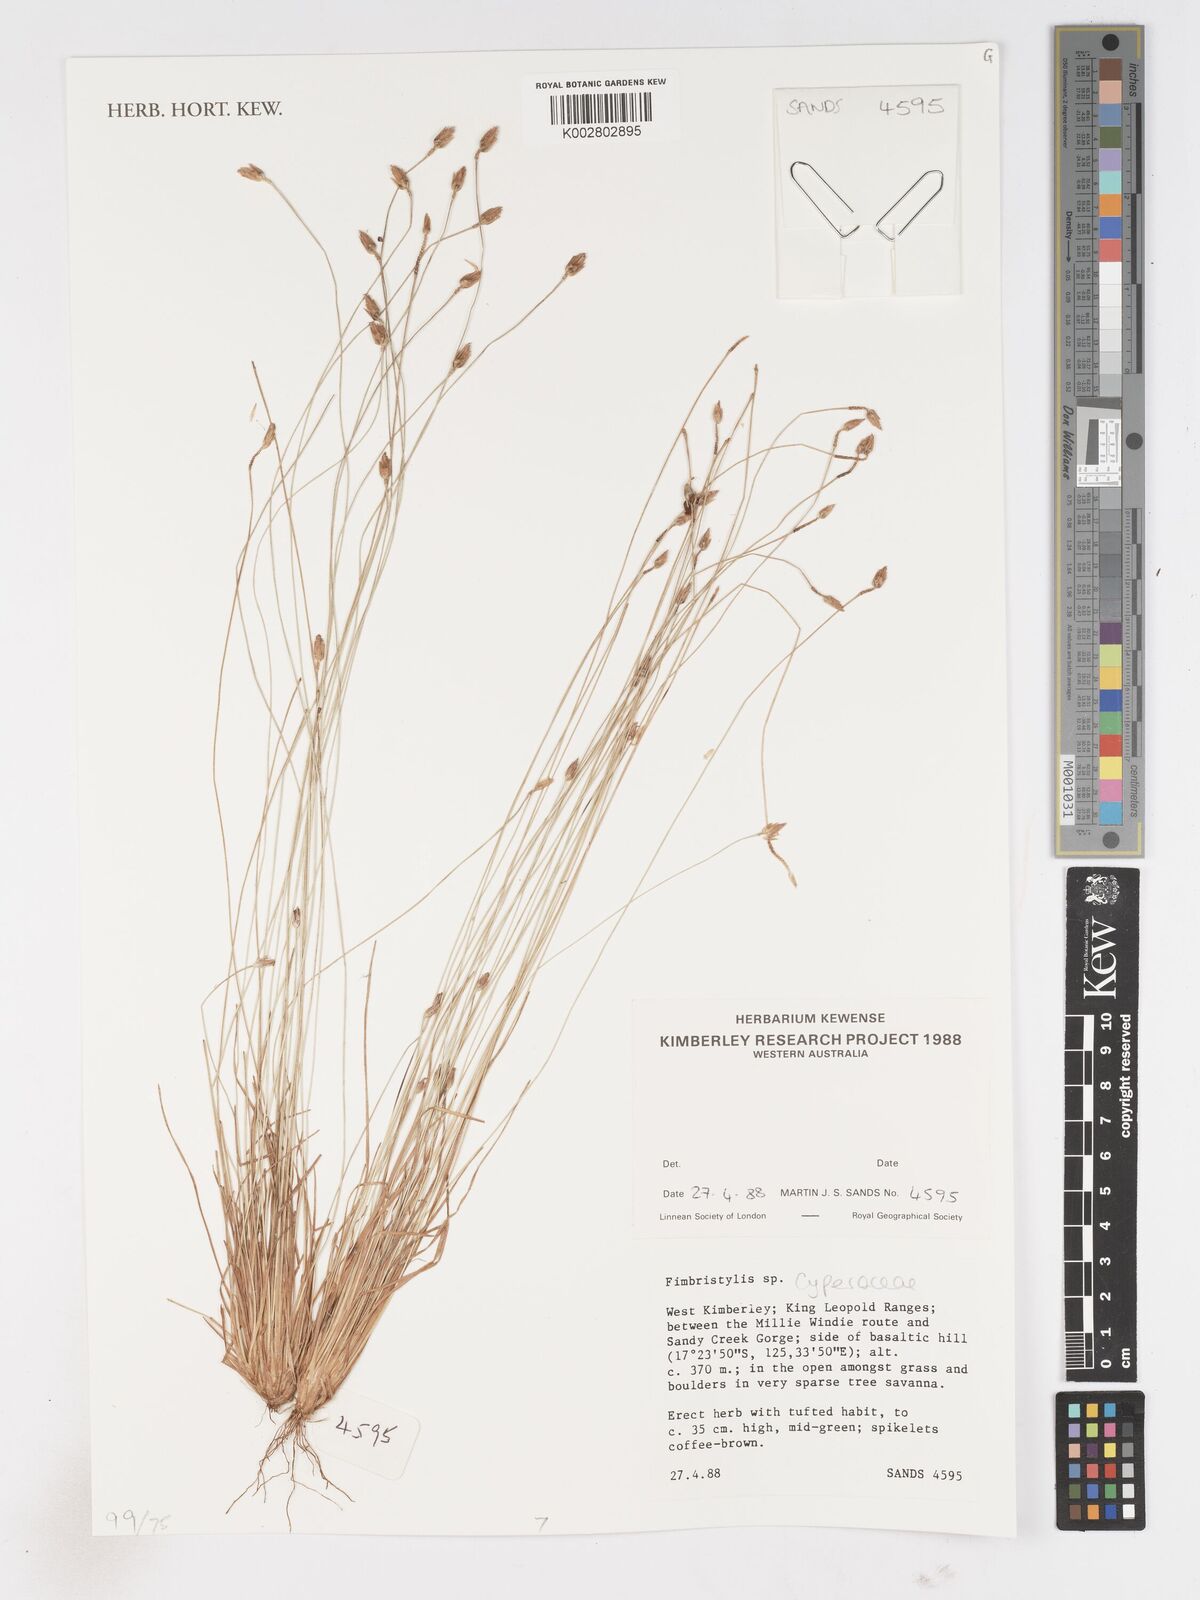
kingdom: Plantae
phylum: Tracheophyta
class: Liliopsida
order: Poales
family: Cyperaceae
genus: Fimbristylis
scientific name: Fimbristylis
